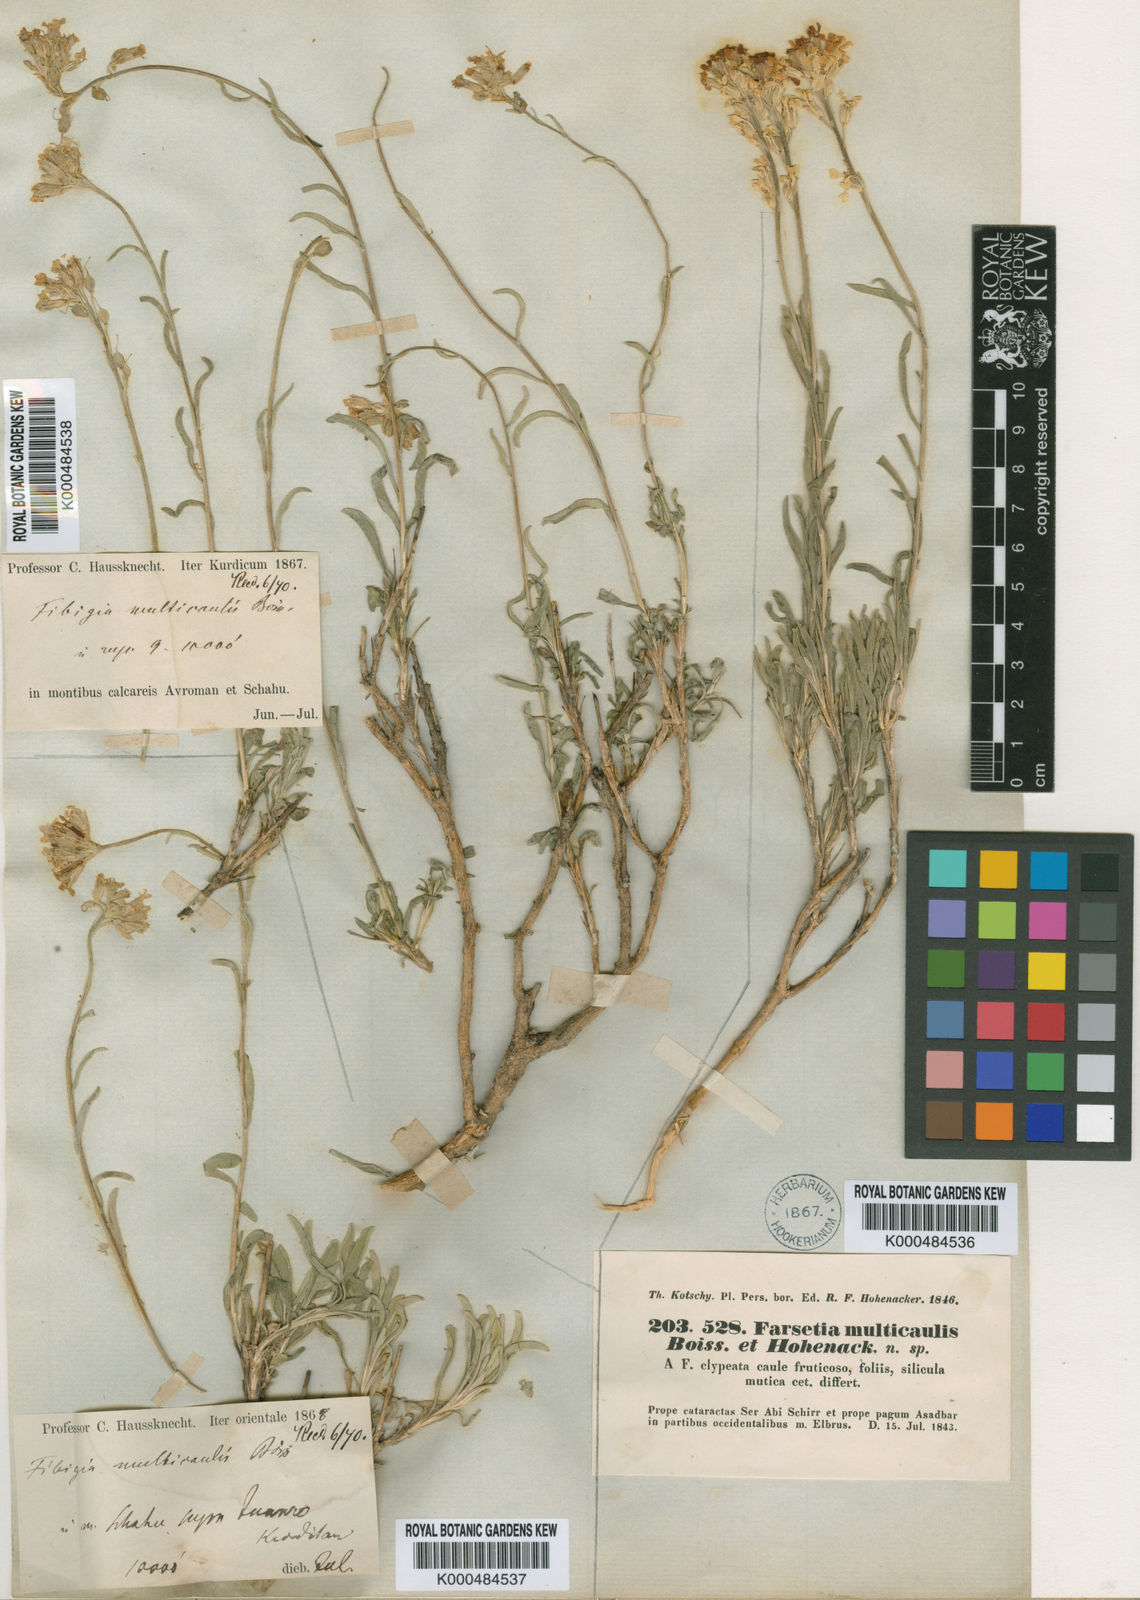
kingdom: Plantae
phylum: Tracheophyta
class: Magnoliopsida
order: Brassicales
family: Brassicaceae
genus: Irania
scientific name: Irania multicaulis
